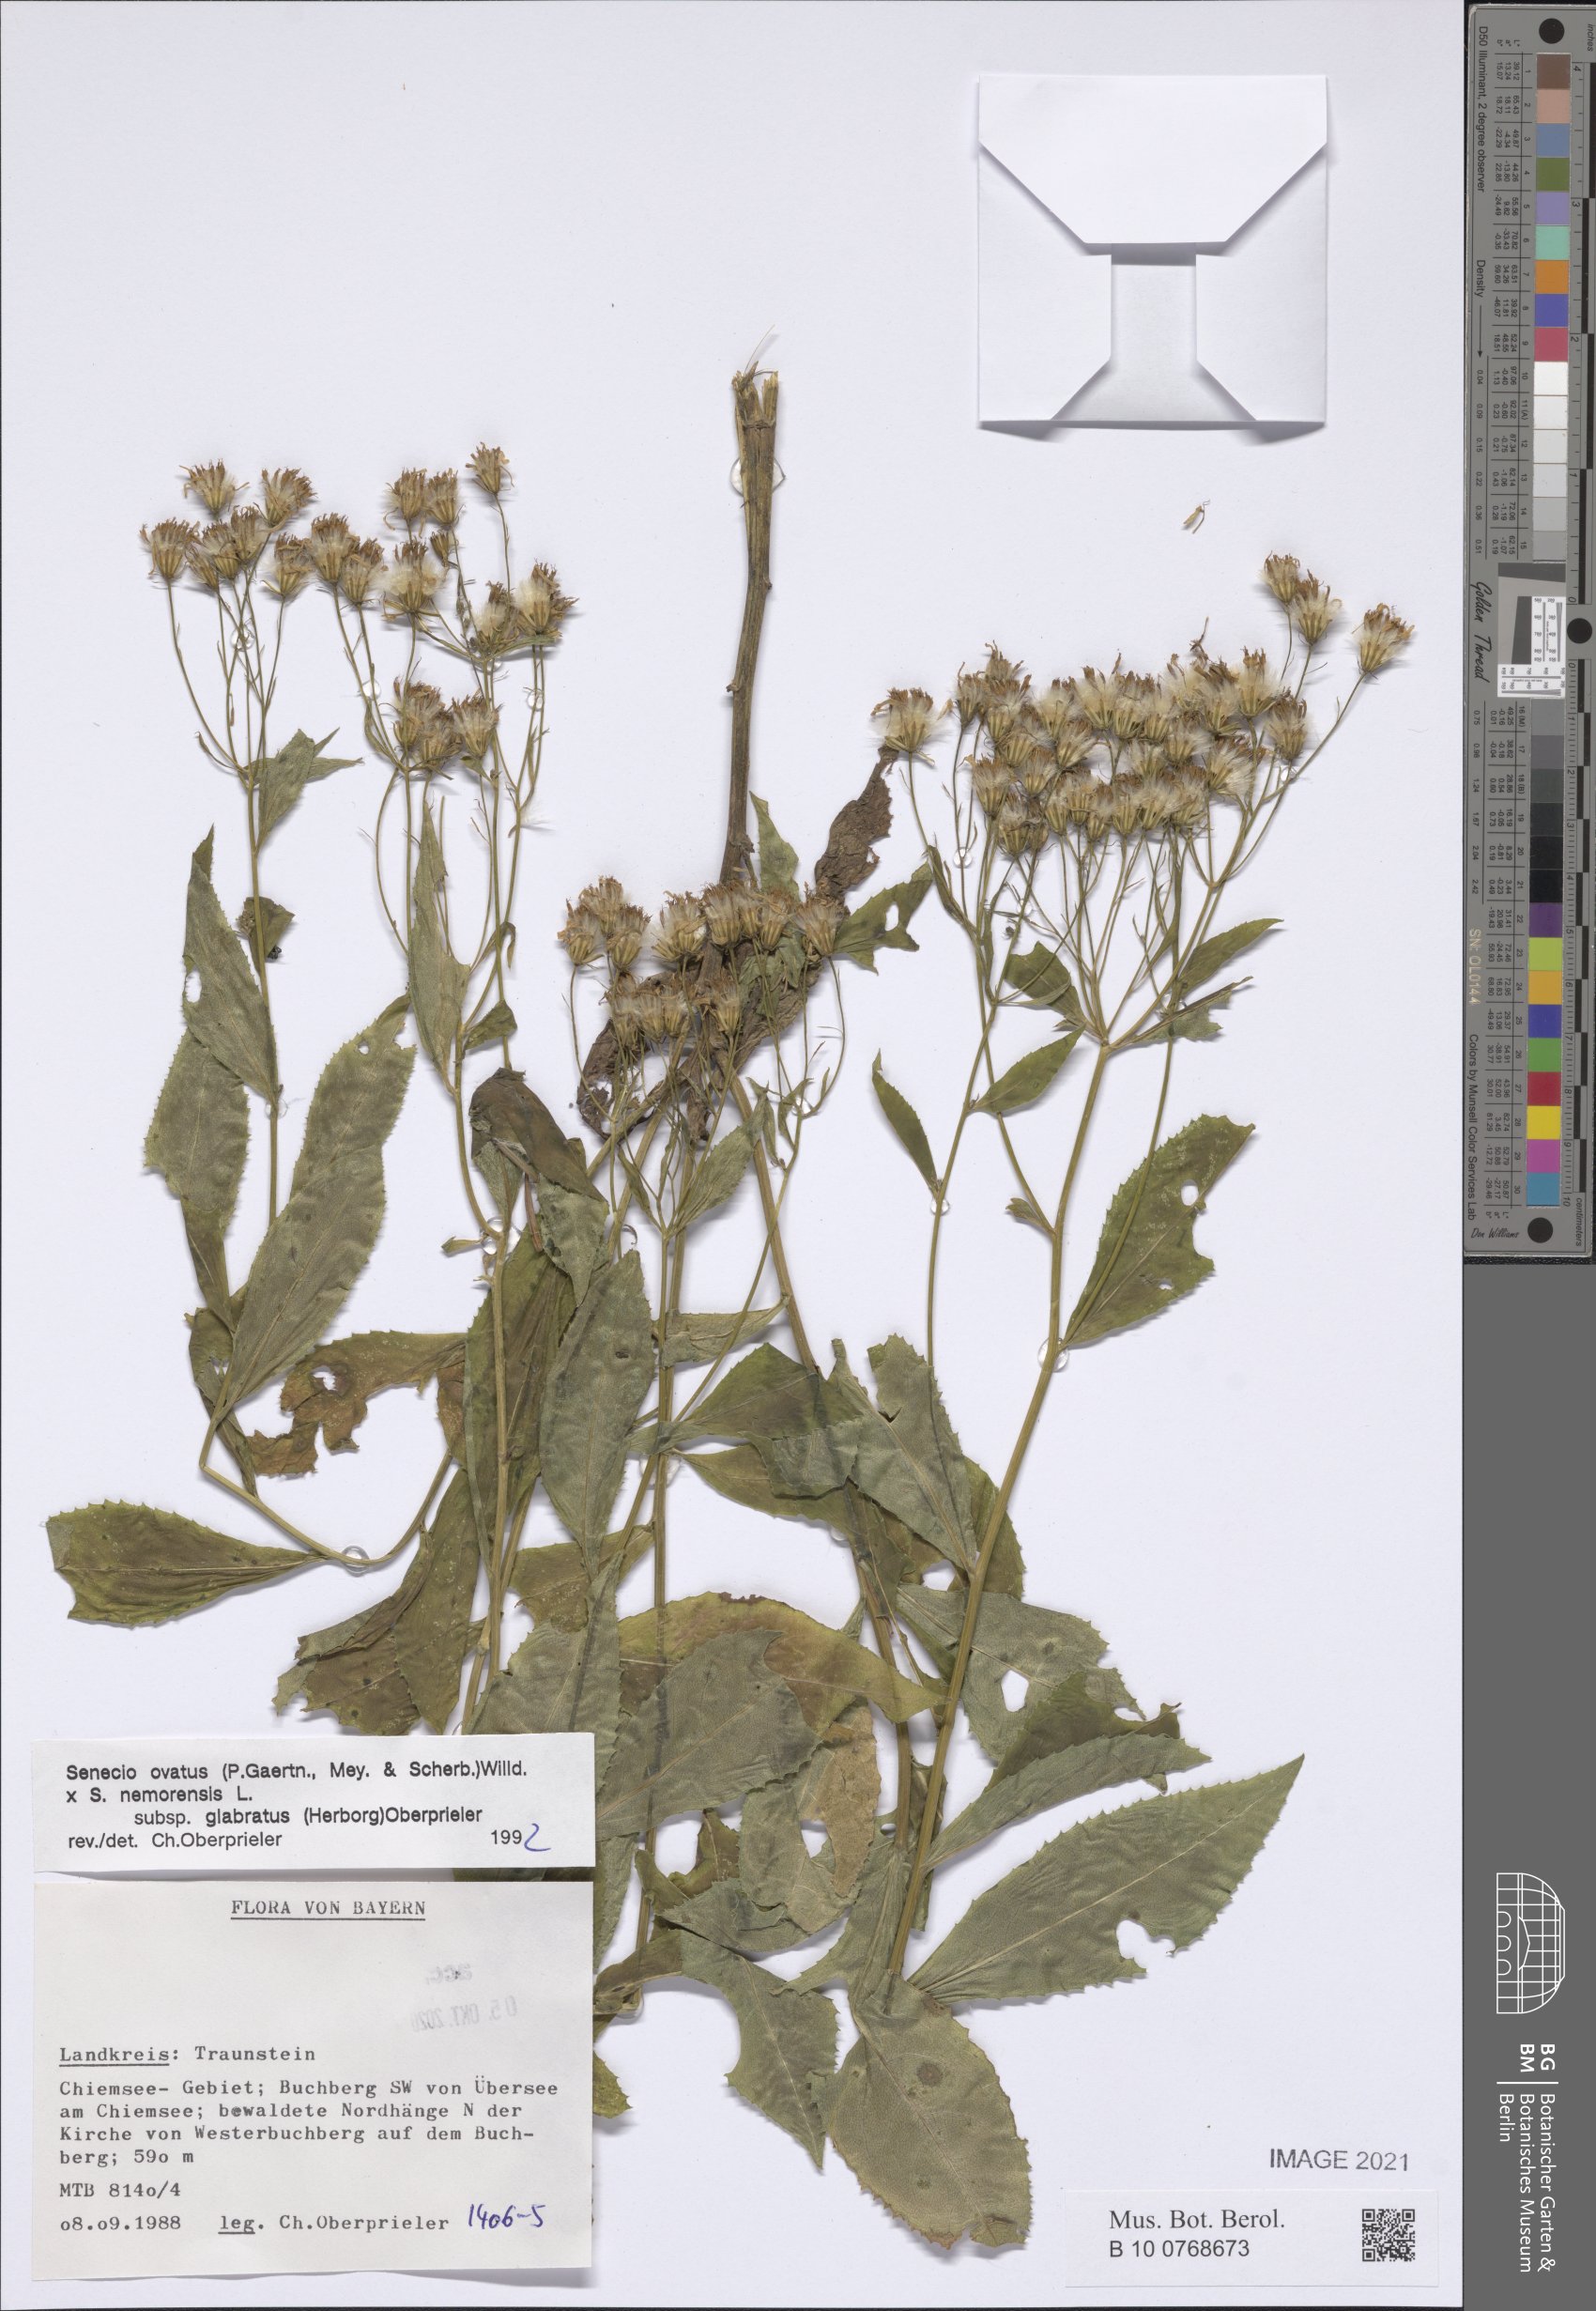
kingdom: Plantae
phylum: Tracheophyta
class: Magnoliopsida
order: Asterales
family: Asteraceae
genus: Senecio
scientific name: Senecio ovatus
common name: Wood ragwort
